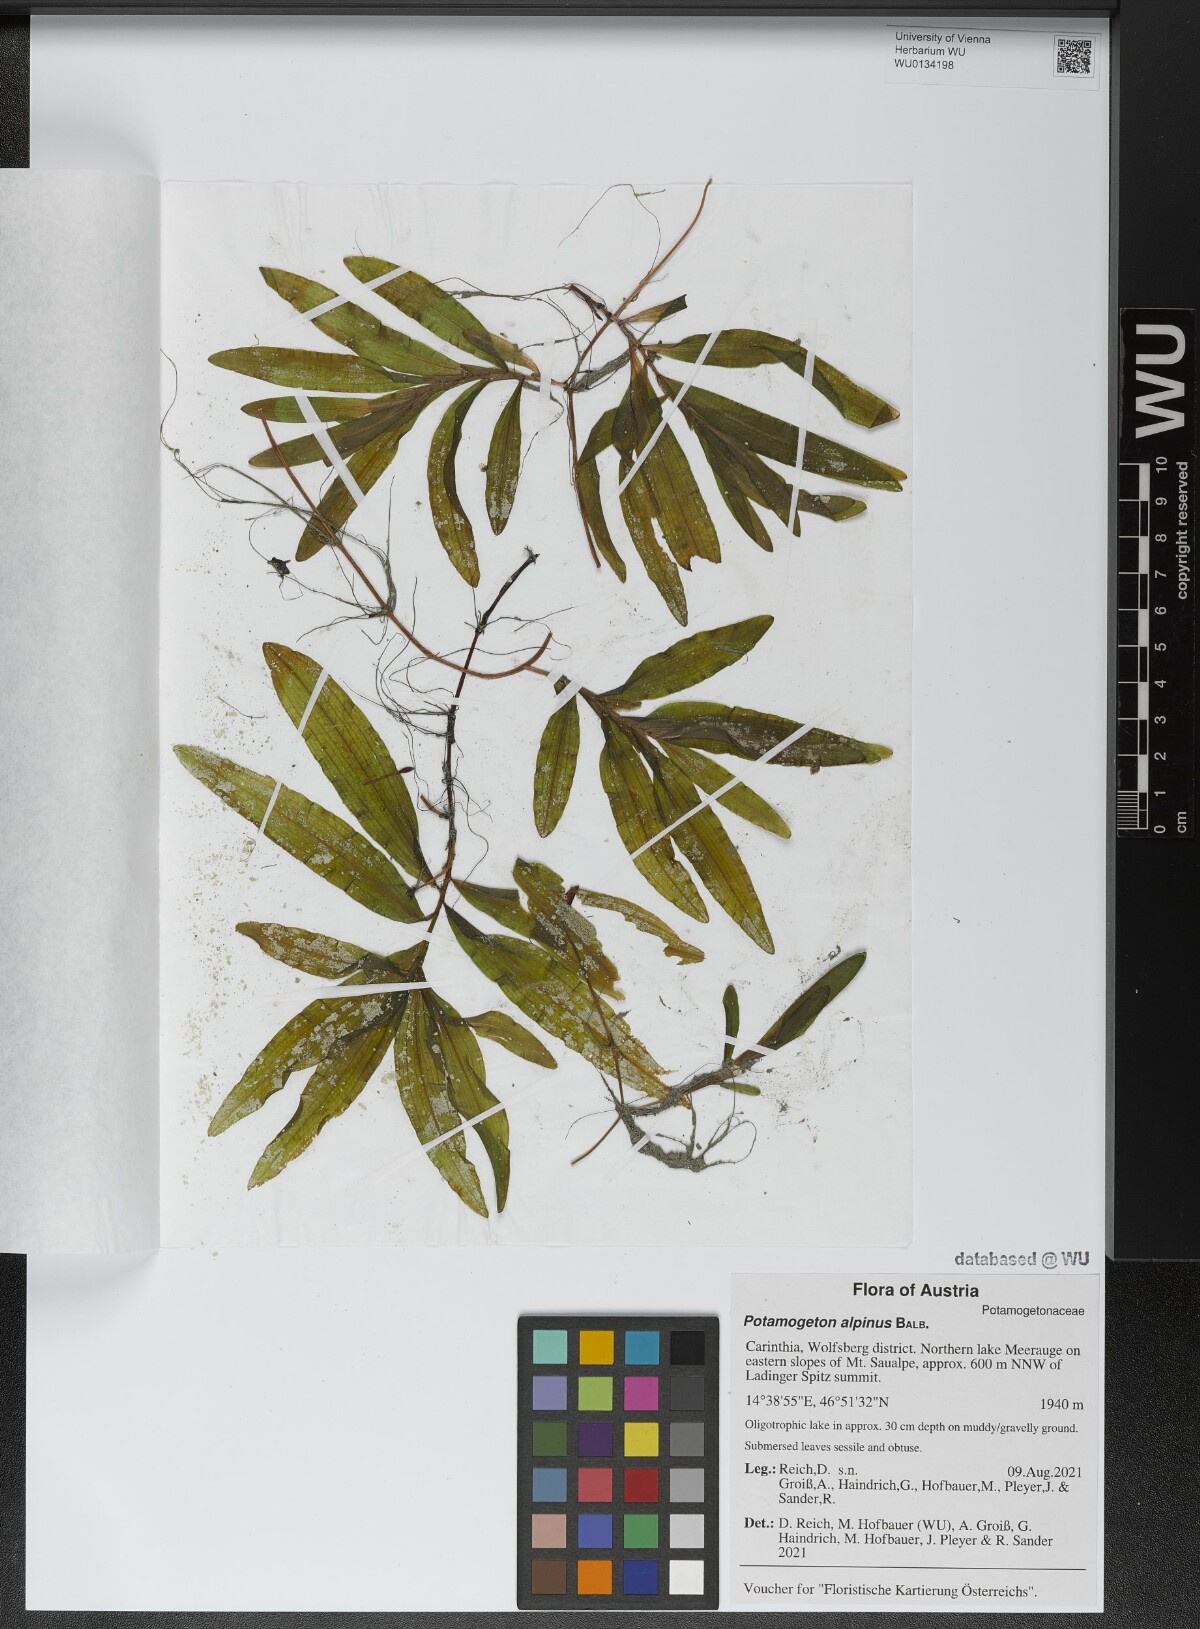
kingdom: Plantae
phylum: Tracheophyta
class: Liliopsida
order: Alismatales
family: Potamogetonaceae
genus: Potamogeton
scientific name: Potamogeton alpinus
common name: Red pondweed
